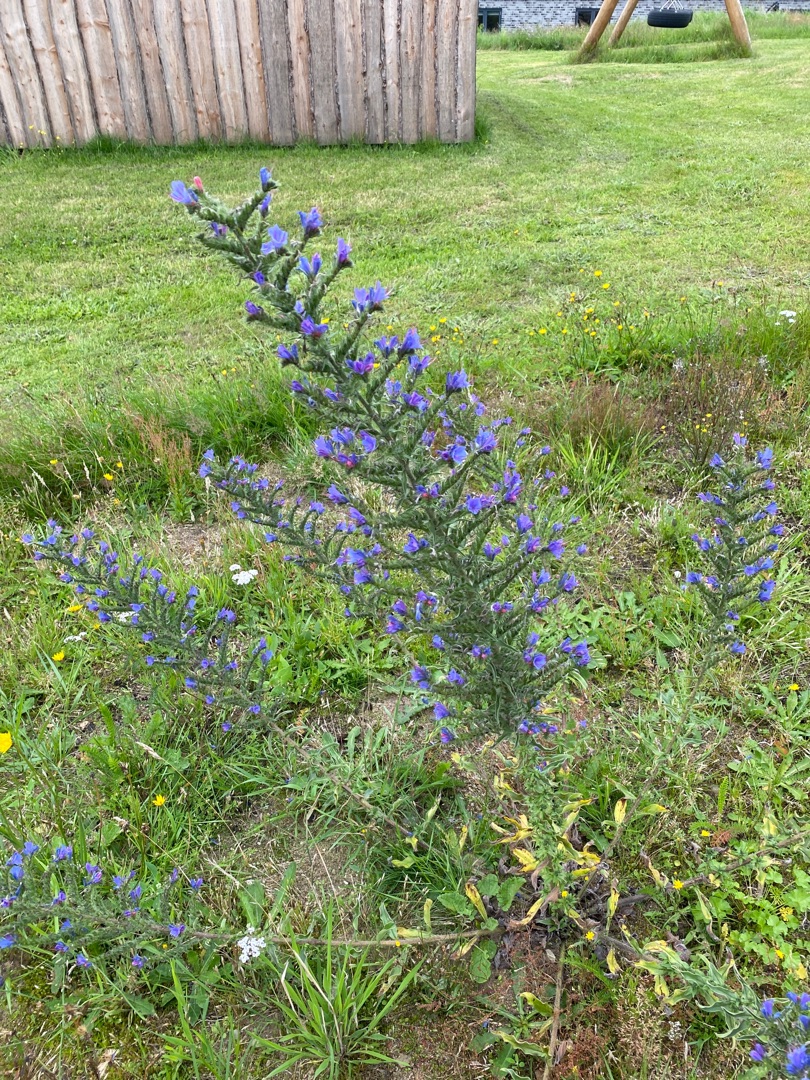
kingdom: Plantae
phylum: Tracheophyta
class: Magnoliopsida
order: Boraginales
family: Boraginaceae
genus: Echium
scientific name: Echium vulgare
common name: Slangehoved
